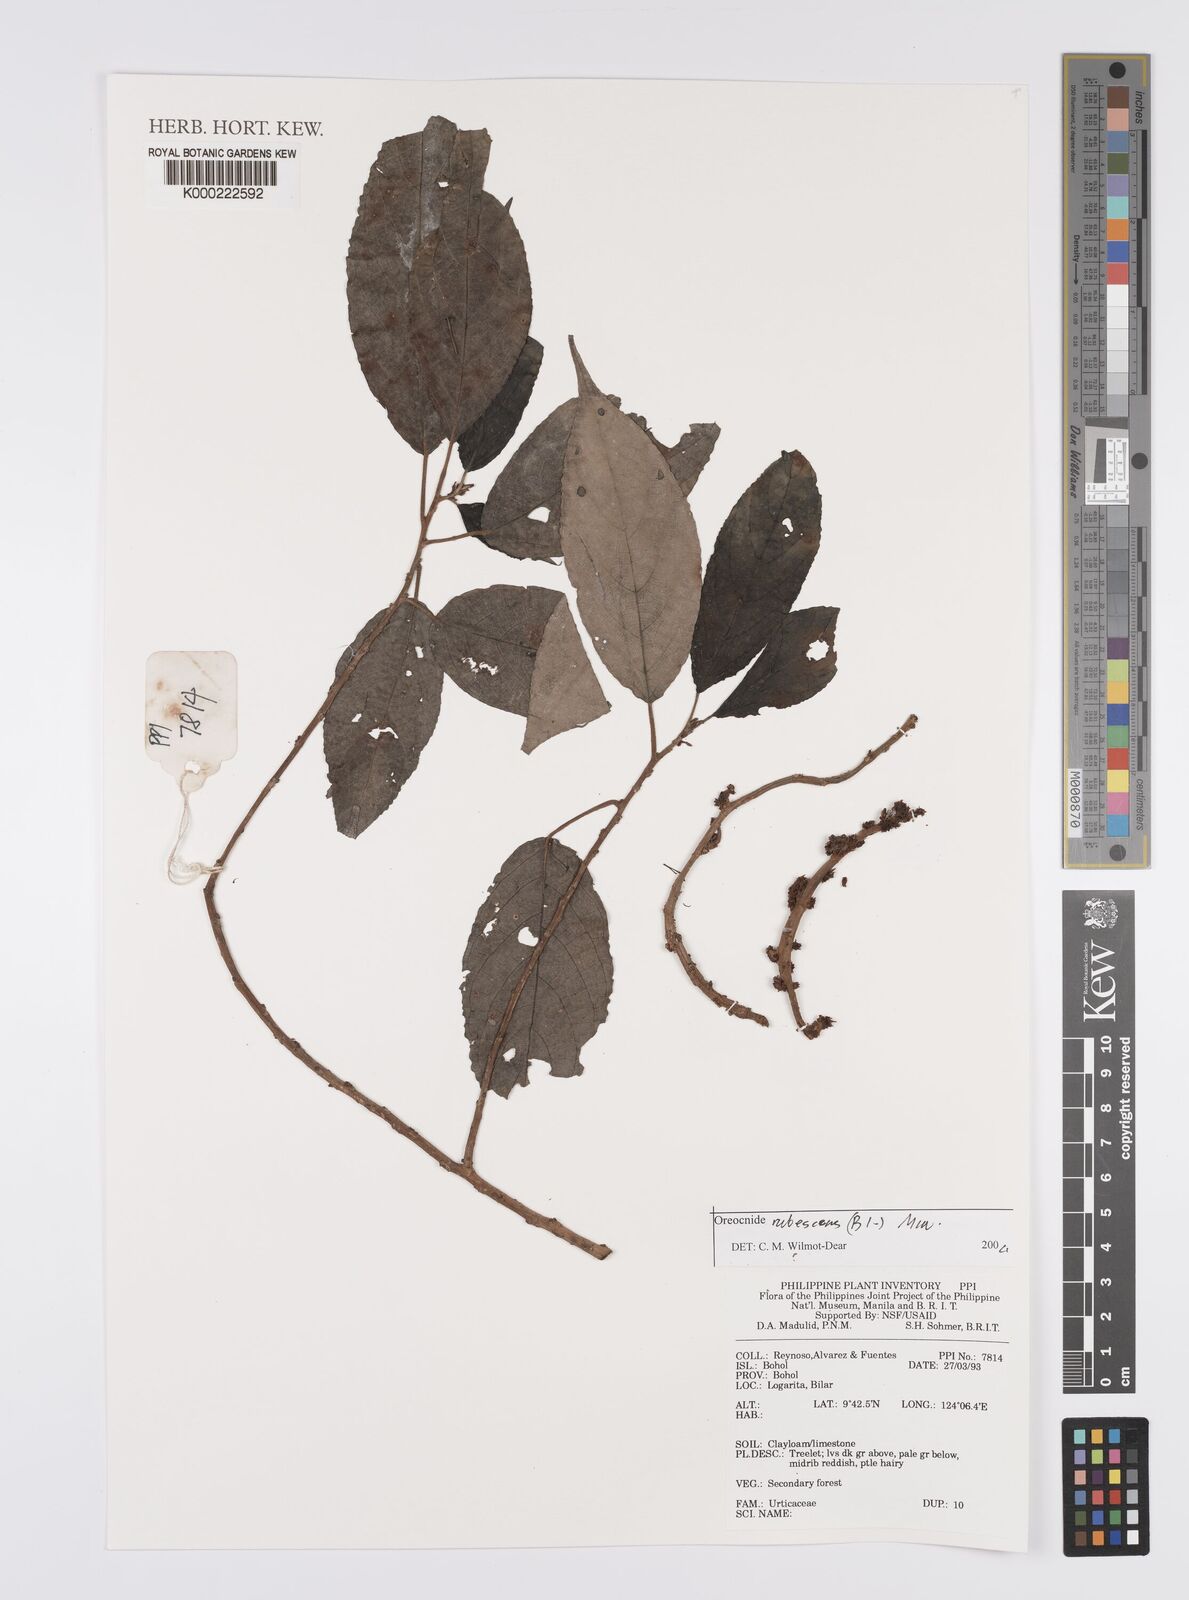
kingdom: Plantae
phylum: Tracheophyta
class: Magnoliopsida
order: Rosales
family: Urticaceae
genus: Oreocnide
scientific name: Oreocnide rubescens
